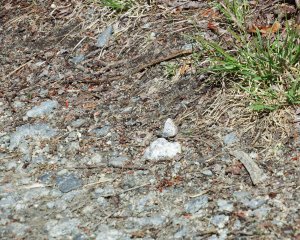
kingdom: Animalia
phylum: Arthropoda
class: Insecta
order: Lepidoptera
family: Lycaenidae
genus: Celastrina
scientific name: Celastrina
